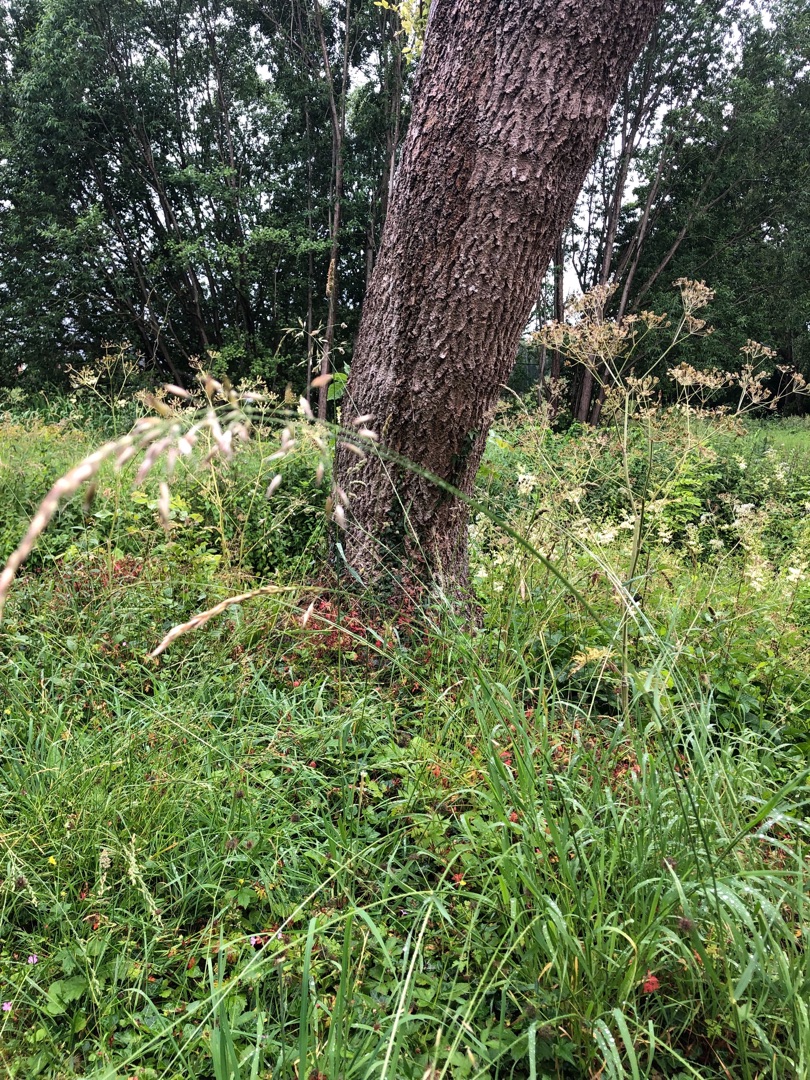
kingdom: Plantae
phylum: Tracheophyta
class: Liliopsida
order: Poales
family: Poaceae
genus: Arrhenatherum
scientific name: Arrhenatherum elatius
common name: Draphavre
